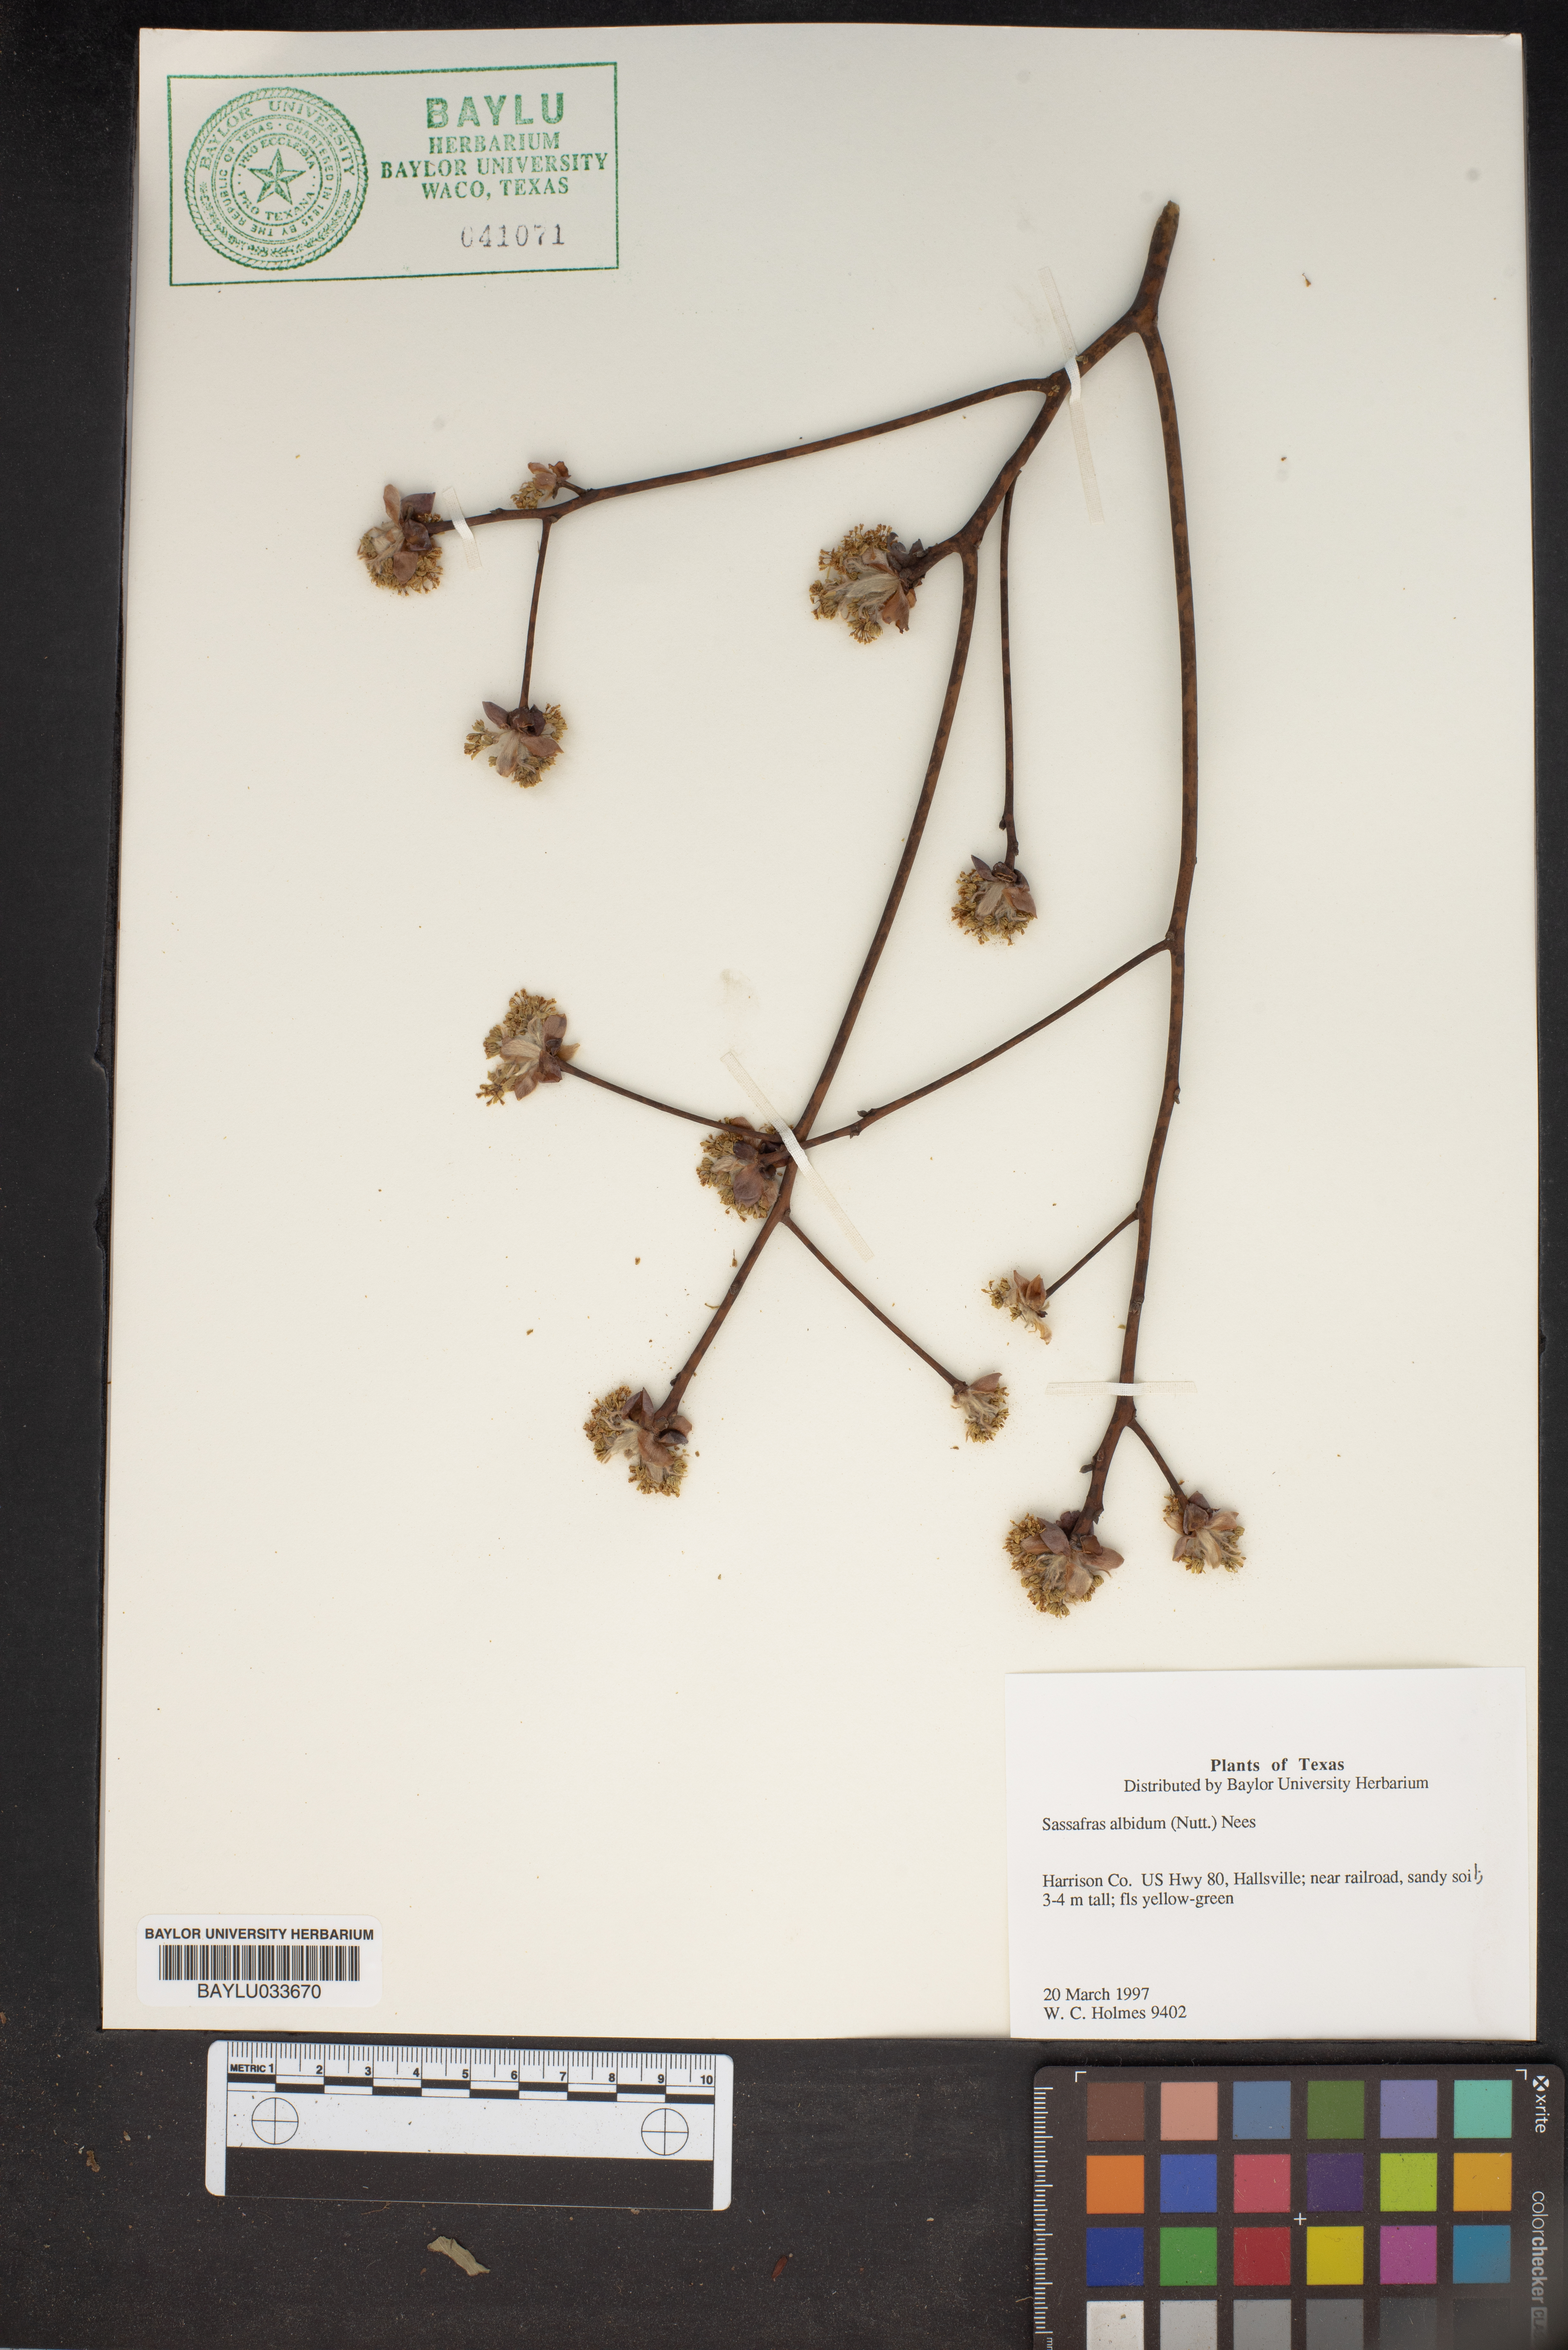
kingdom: Plantae
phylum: Tracheophyta
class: Magnoliopsida
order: Laurales
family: Lauraceae
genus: Sassafras
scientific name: Sassafras albidum
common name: Sassafras
